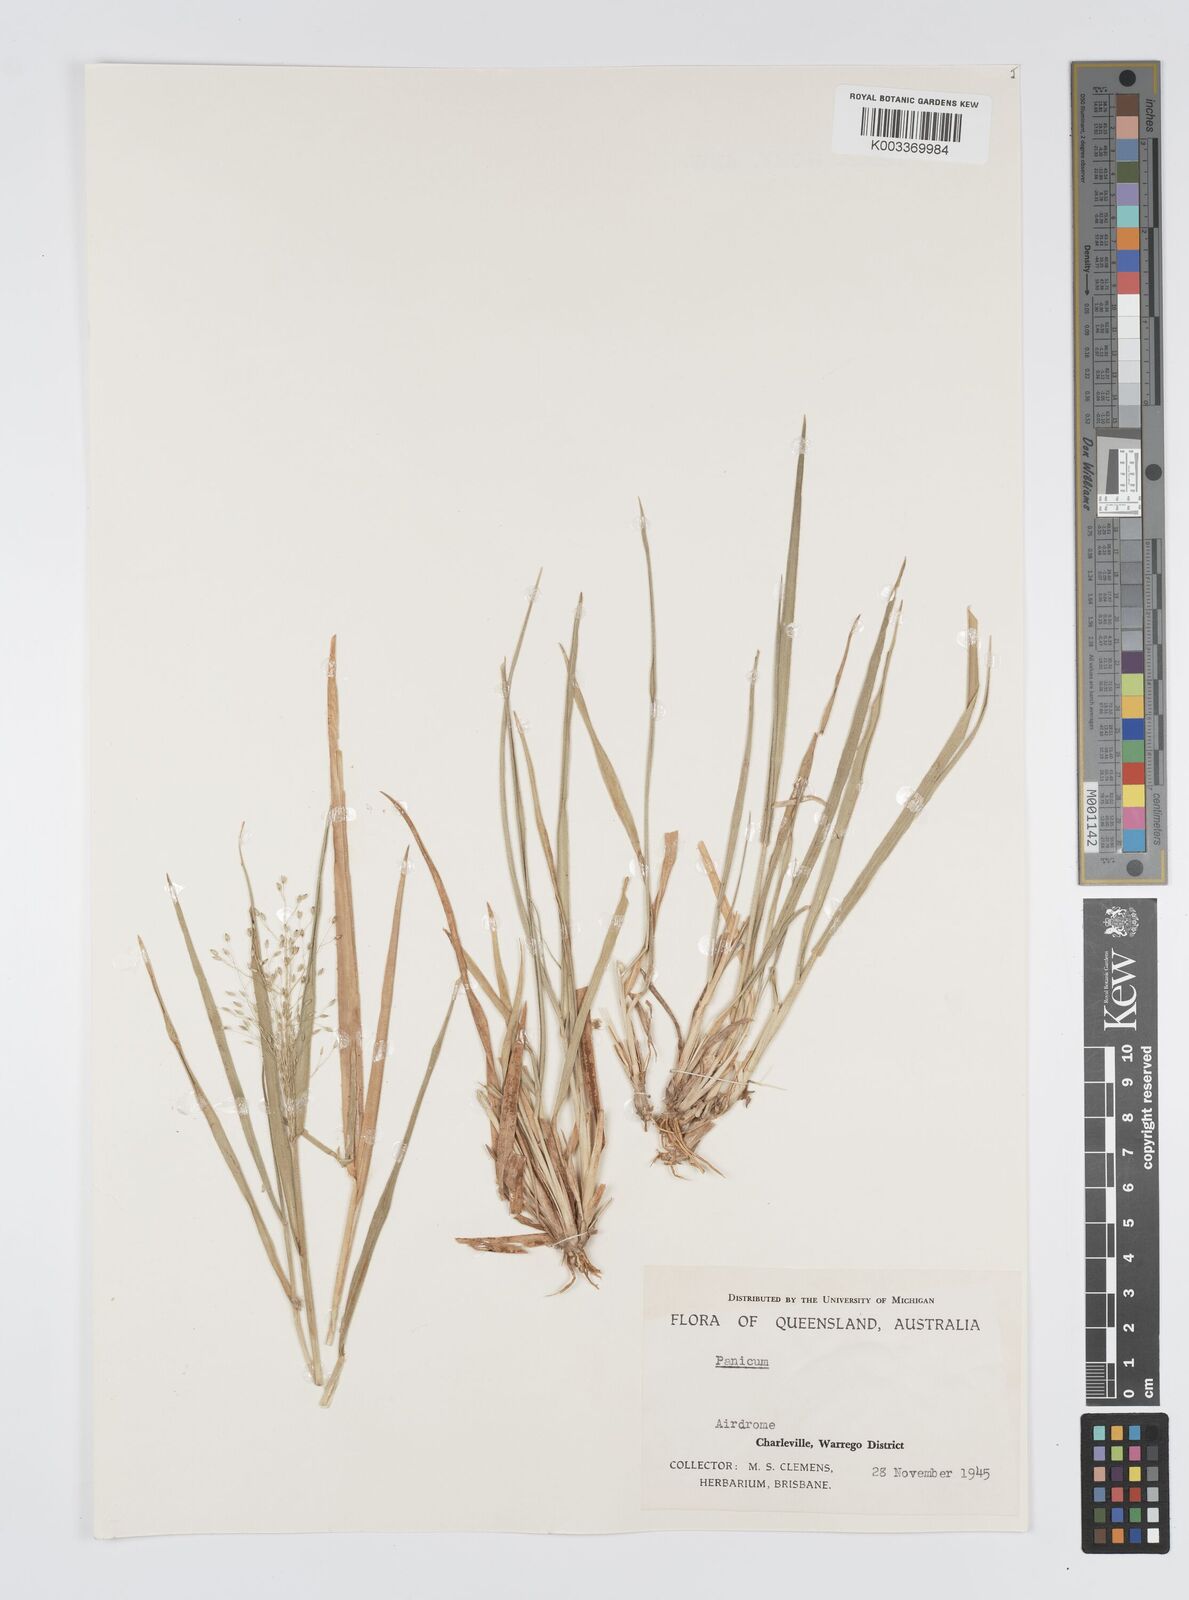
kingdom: Plantae
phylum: Tracheophyta
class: Liliopsida
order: Poales
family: Poaceae
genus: Panicum
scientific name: Panicum effusum
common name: Hairy panic grass
